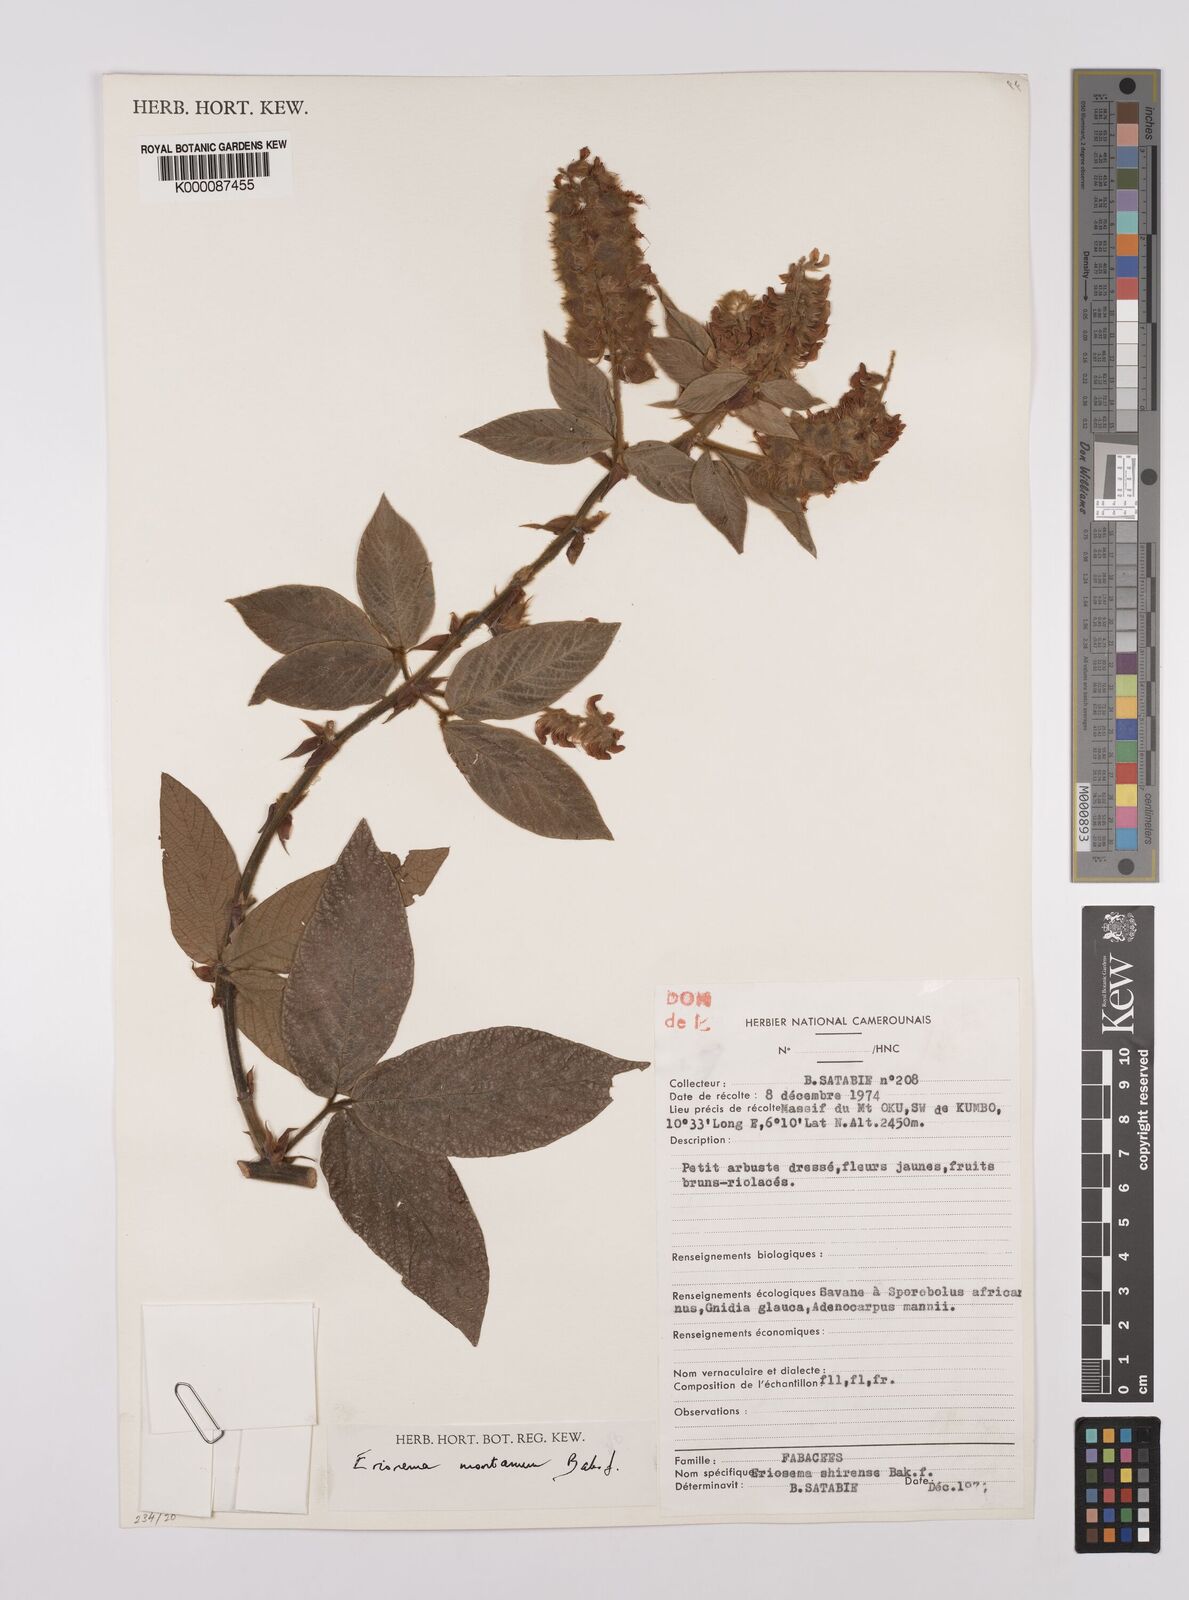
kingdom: Plantae
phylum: Tracheophyta
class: Magnoliopsida
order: Fabales
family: Fabaceae
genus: Eriosema
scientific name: Eriosema montanum
